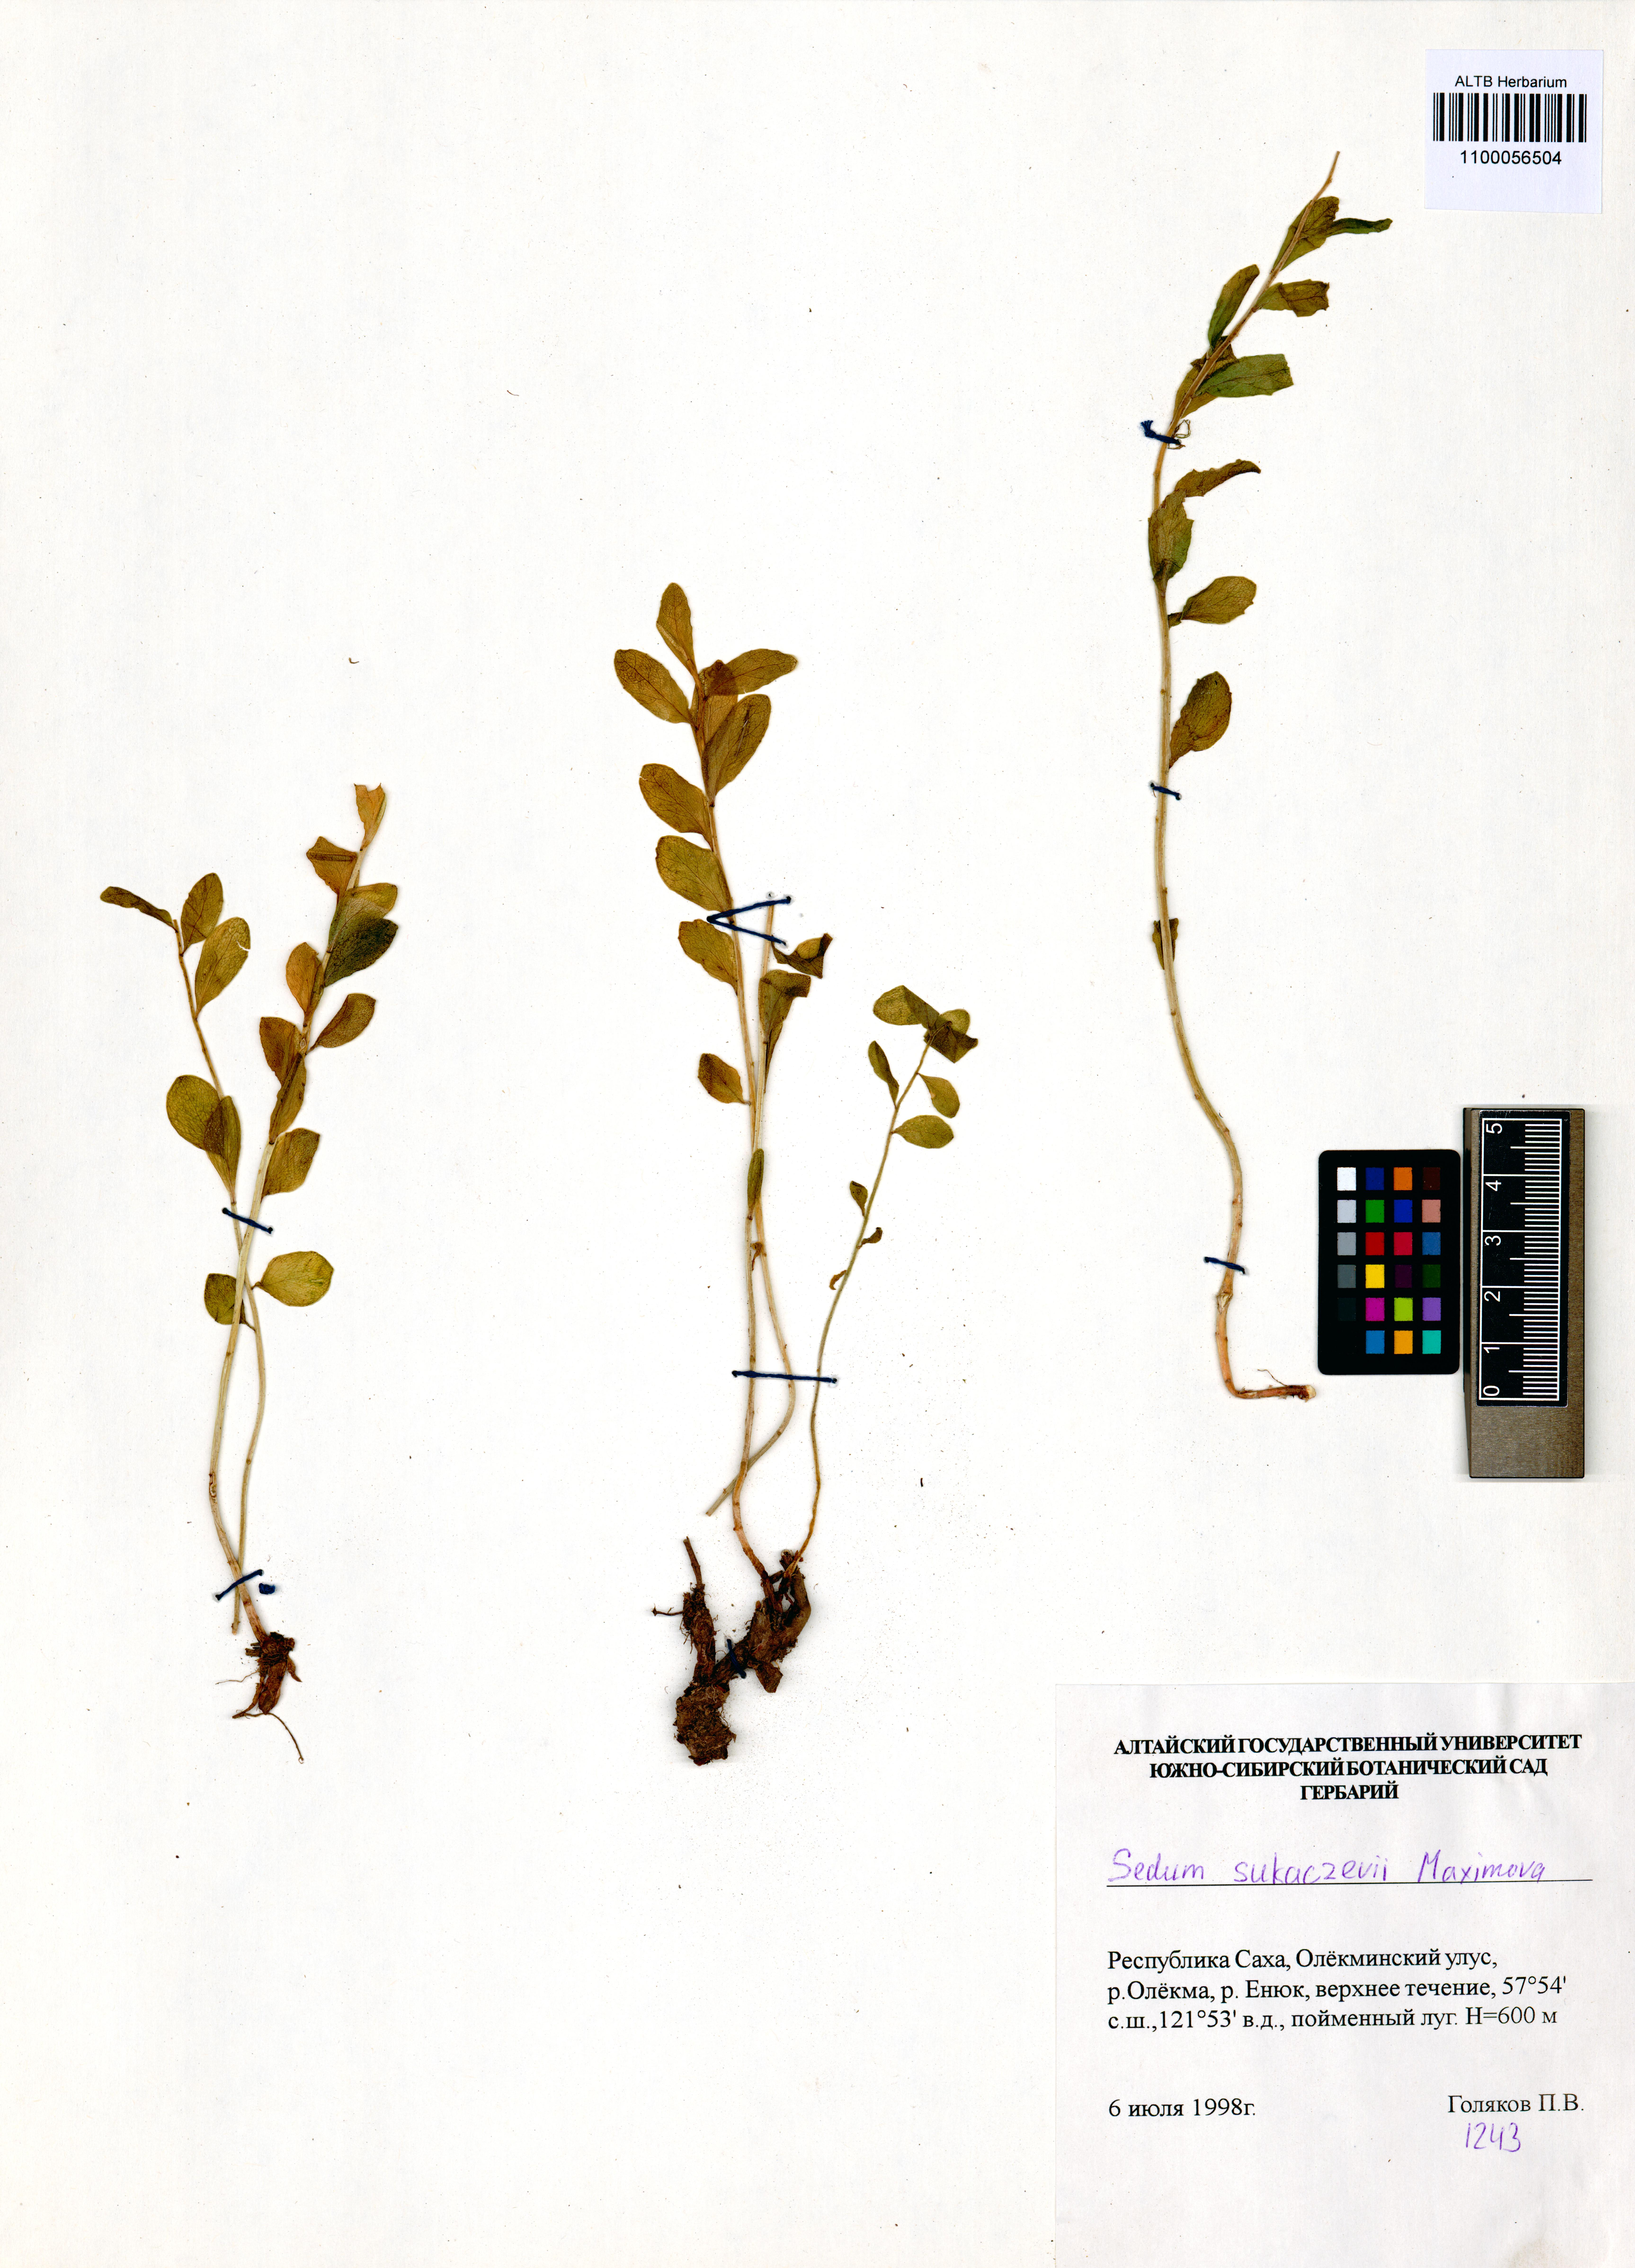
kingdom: Plantae
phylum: Tracheophyta
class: Magnoliopsida
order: Saxifragales
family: Crassulaceae
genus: Hylotelephium
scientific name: Hylotelephium pallescens
